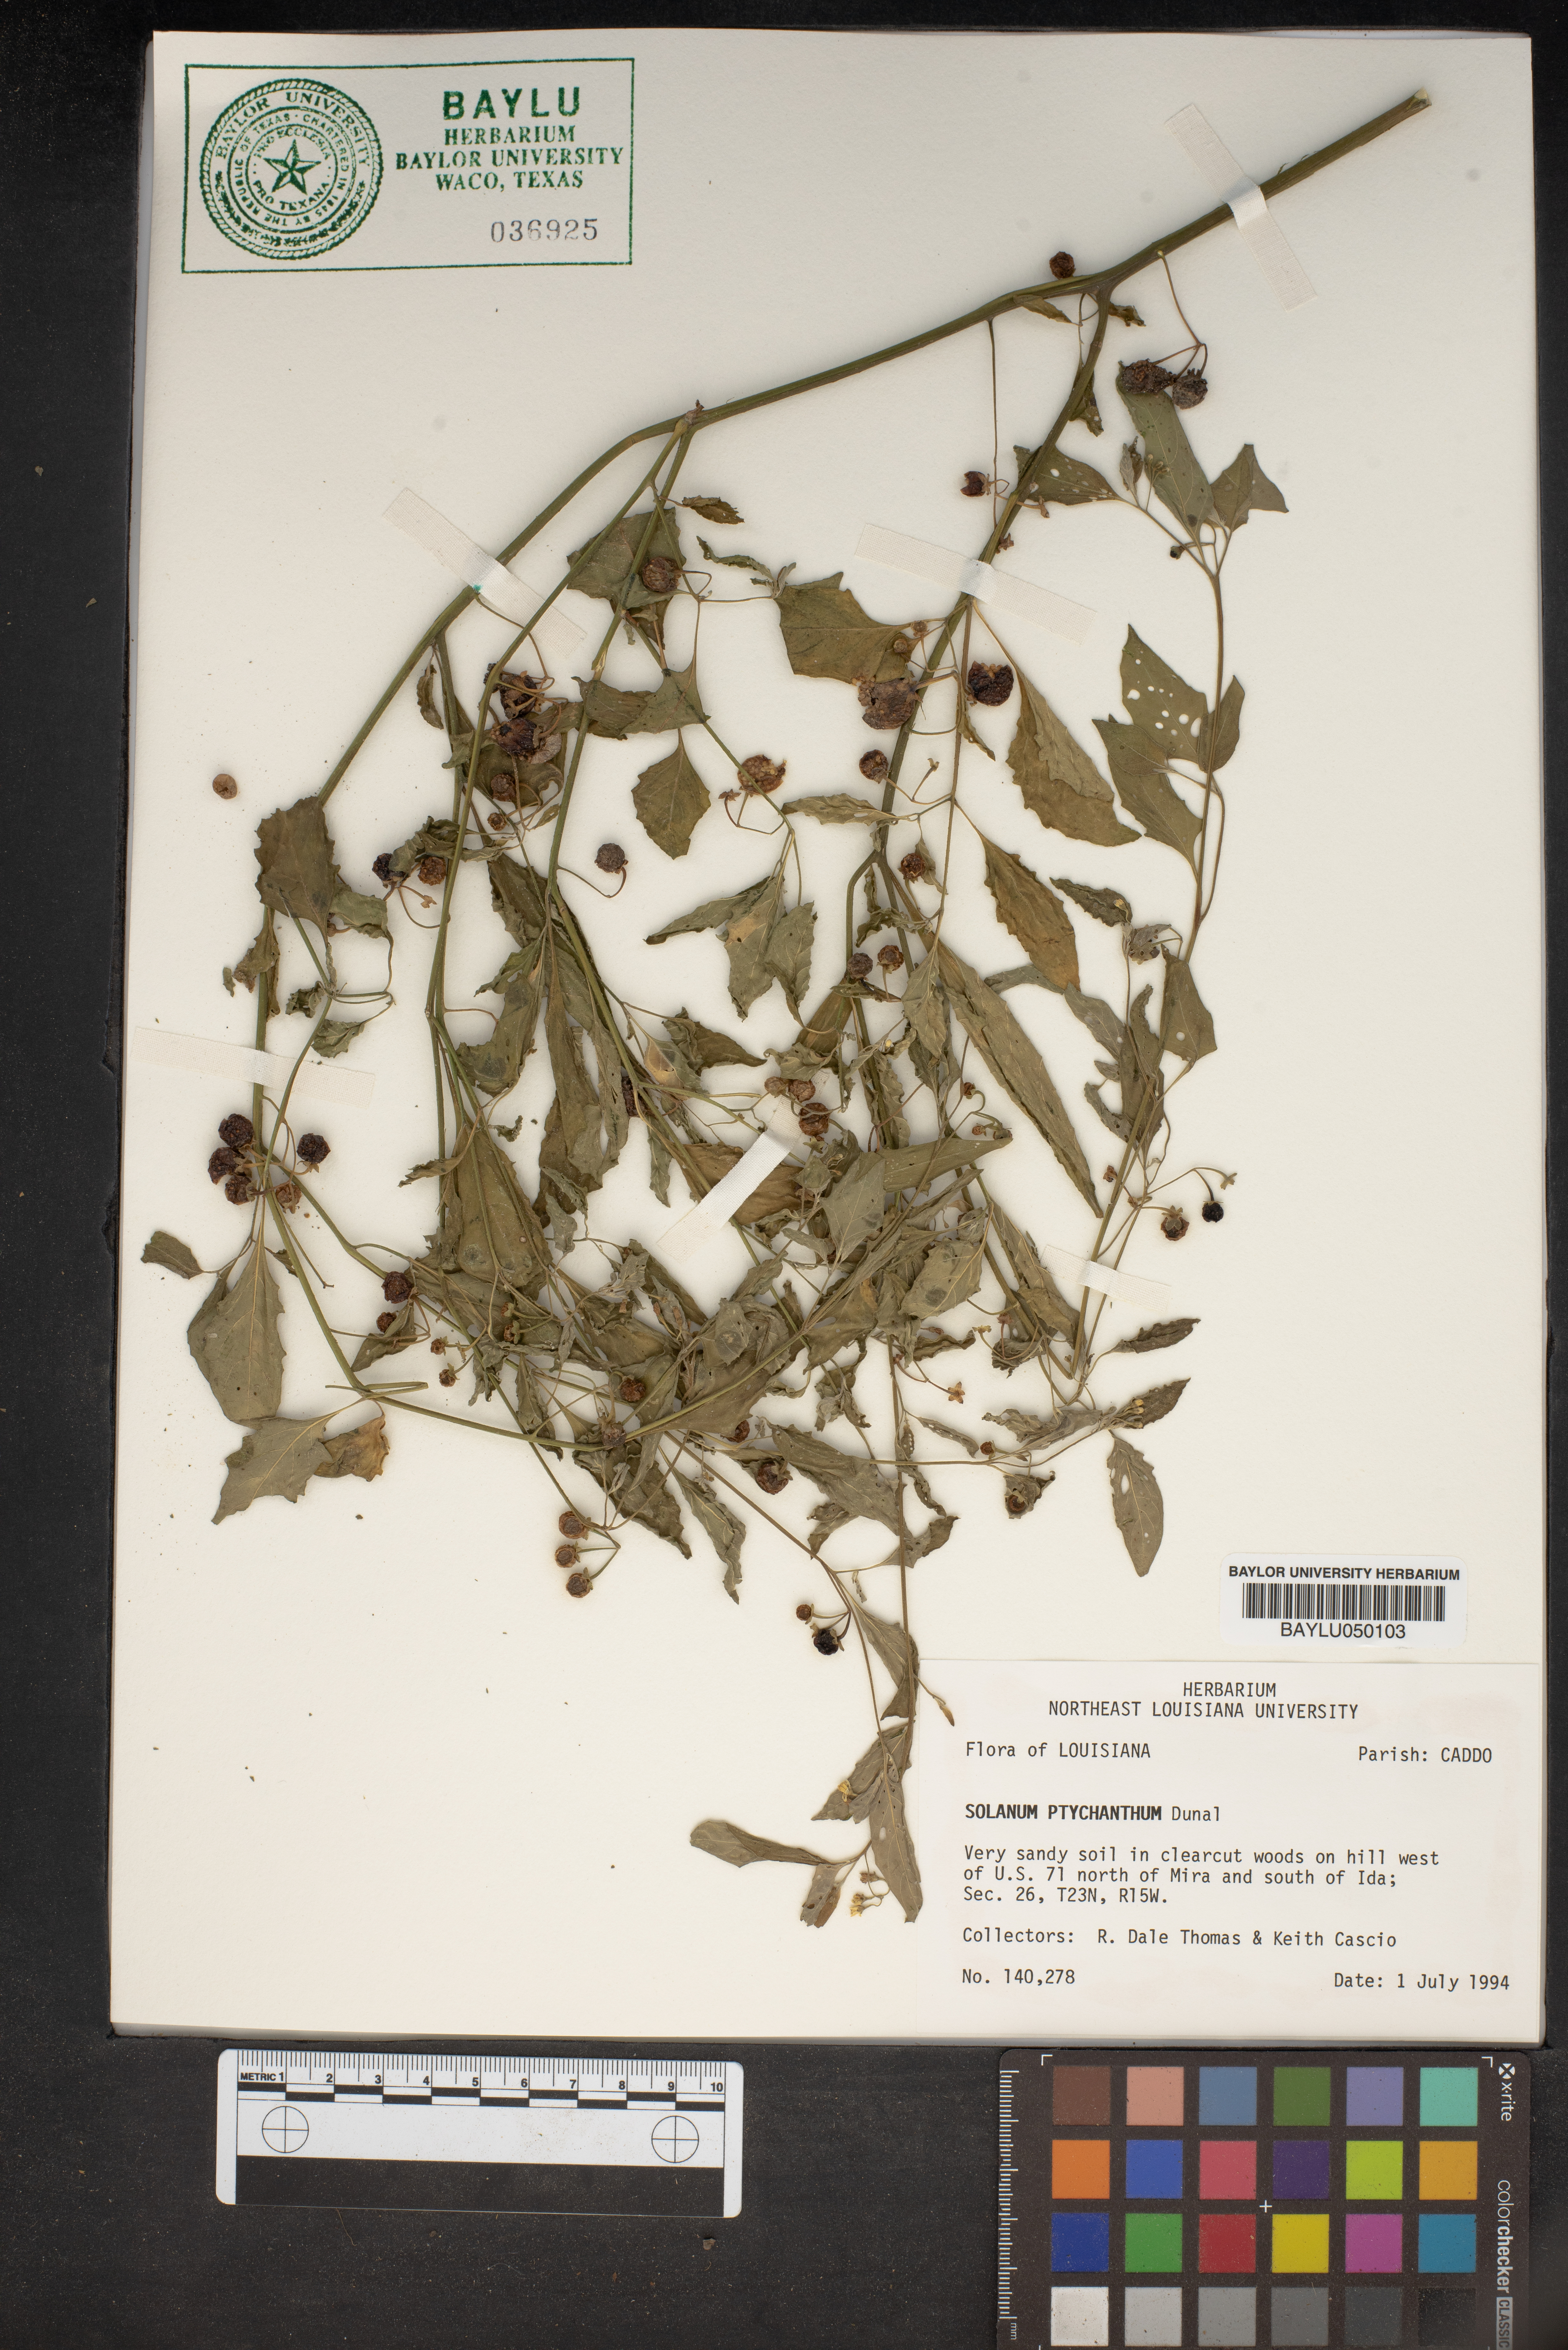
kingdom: Plantae
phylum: Tracheophyta
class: Magnoliopsida
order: Solanales
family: Solanaceae
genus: Solanum
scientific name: Solanum americanum
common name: American black nightshade
